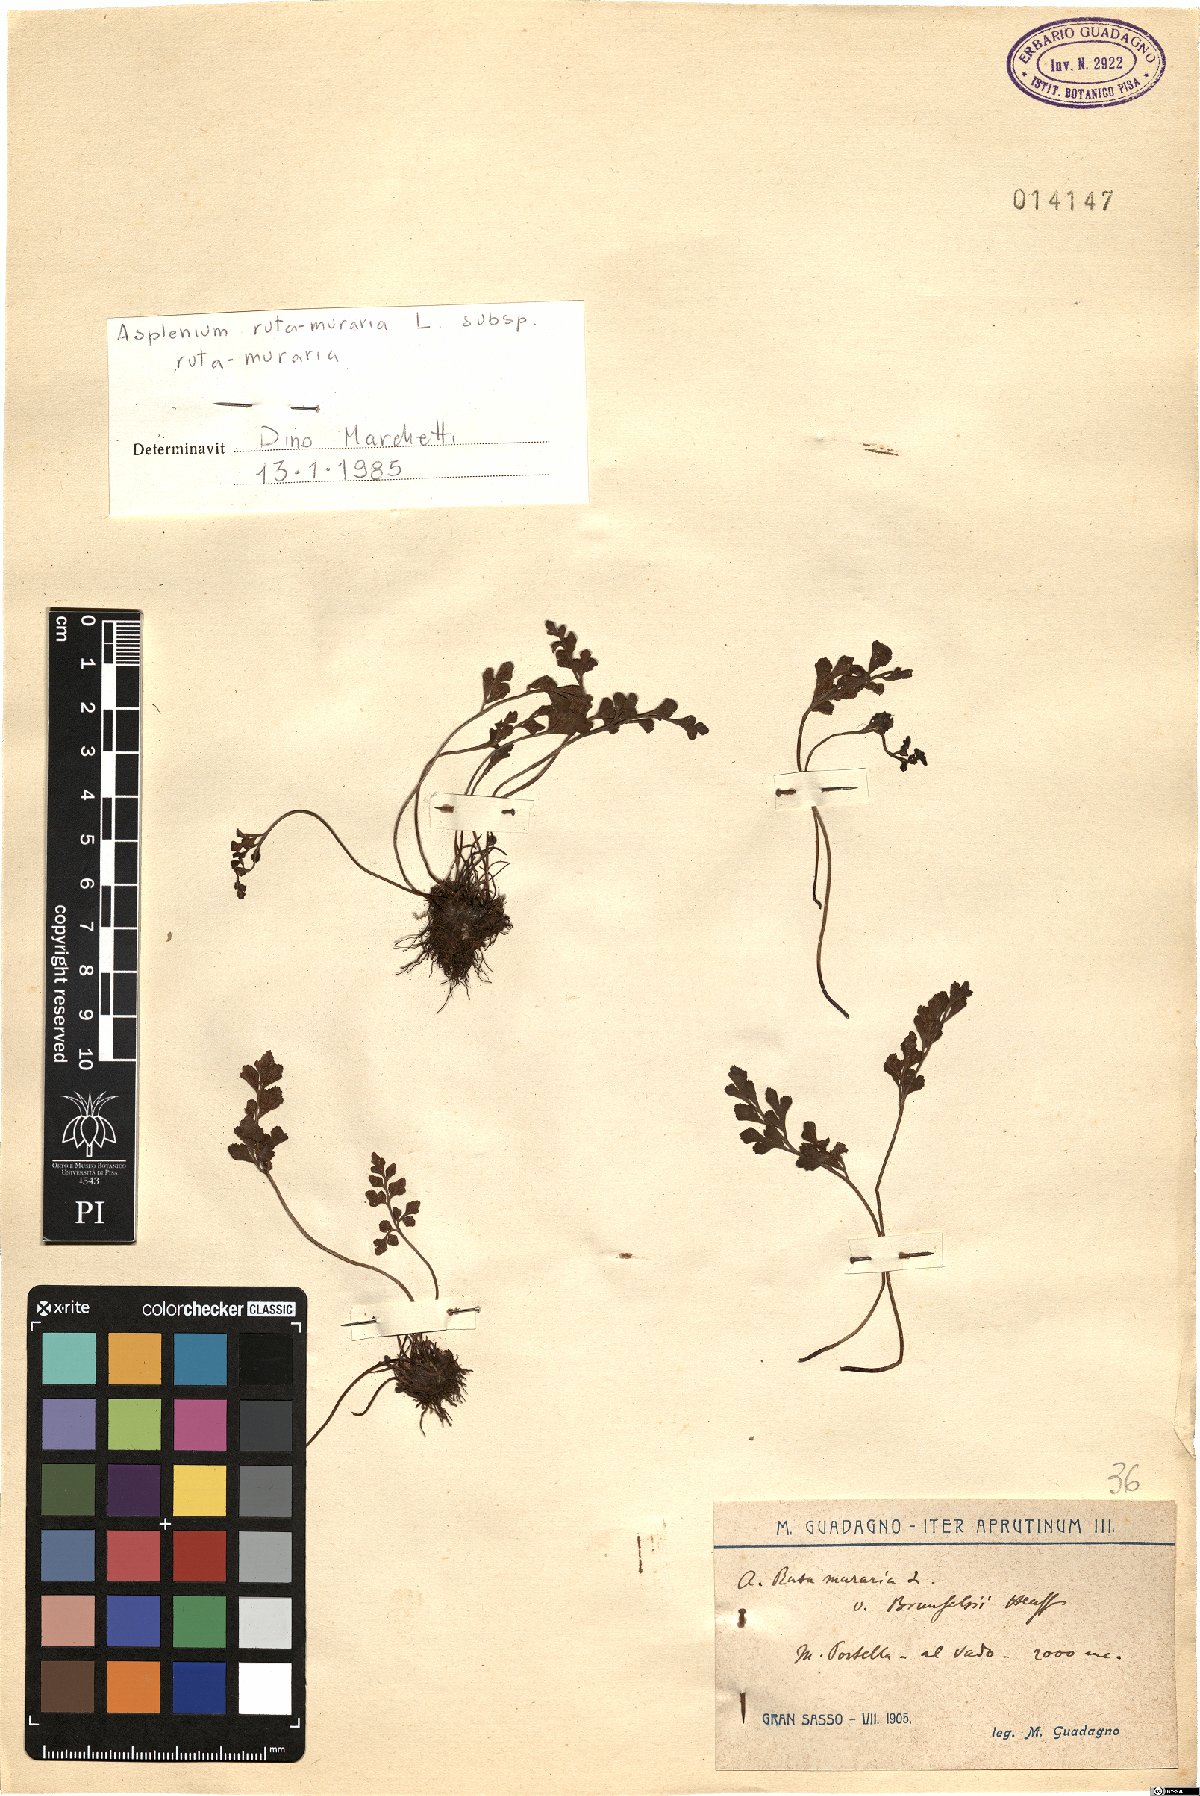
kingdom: Plantae
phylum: Tracheophyta
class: Polypodiopsida
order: Polypodiales
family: Aspleniaceae
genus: Asplenium
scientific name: Asplenium ruta-muraria
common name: Wall-rue
